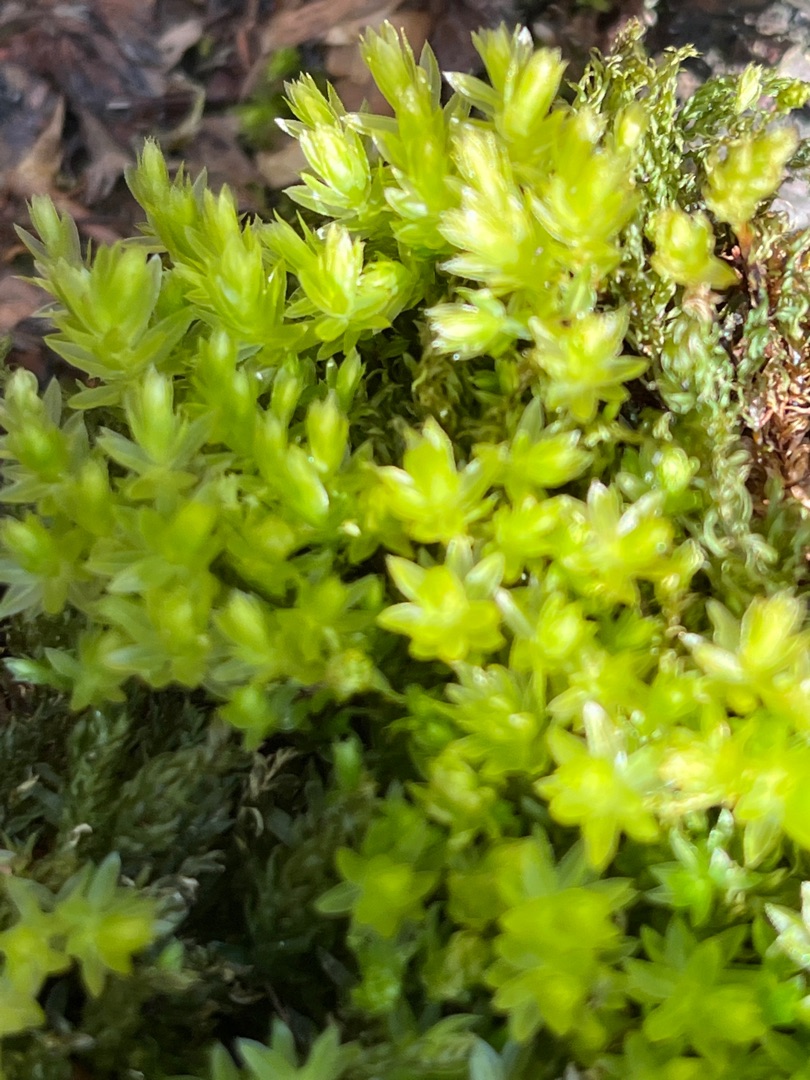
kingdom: Plantae
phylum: Bryophyta
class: Bryopsida
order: Bryales
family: Mniaceae
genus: Mnium
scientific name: Mnium hornum
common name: Brunfiltet stjernemos
